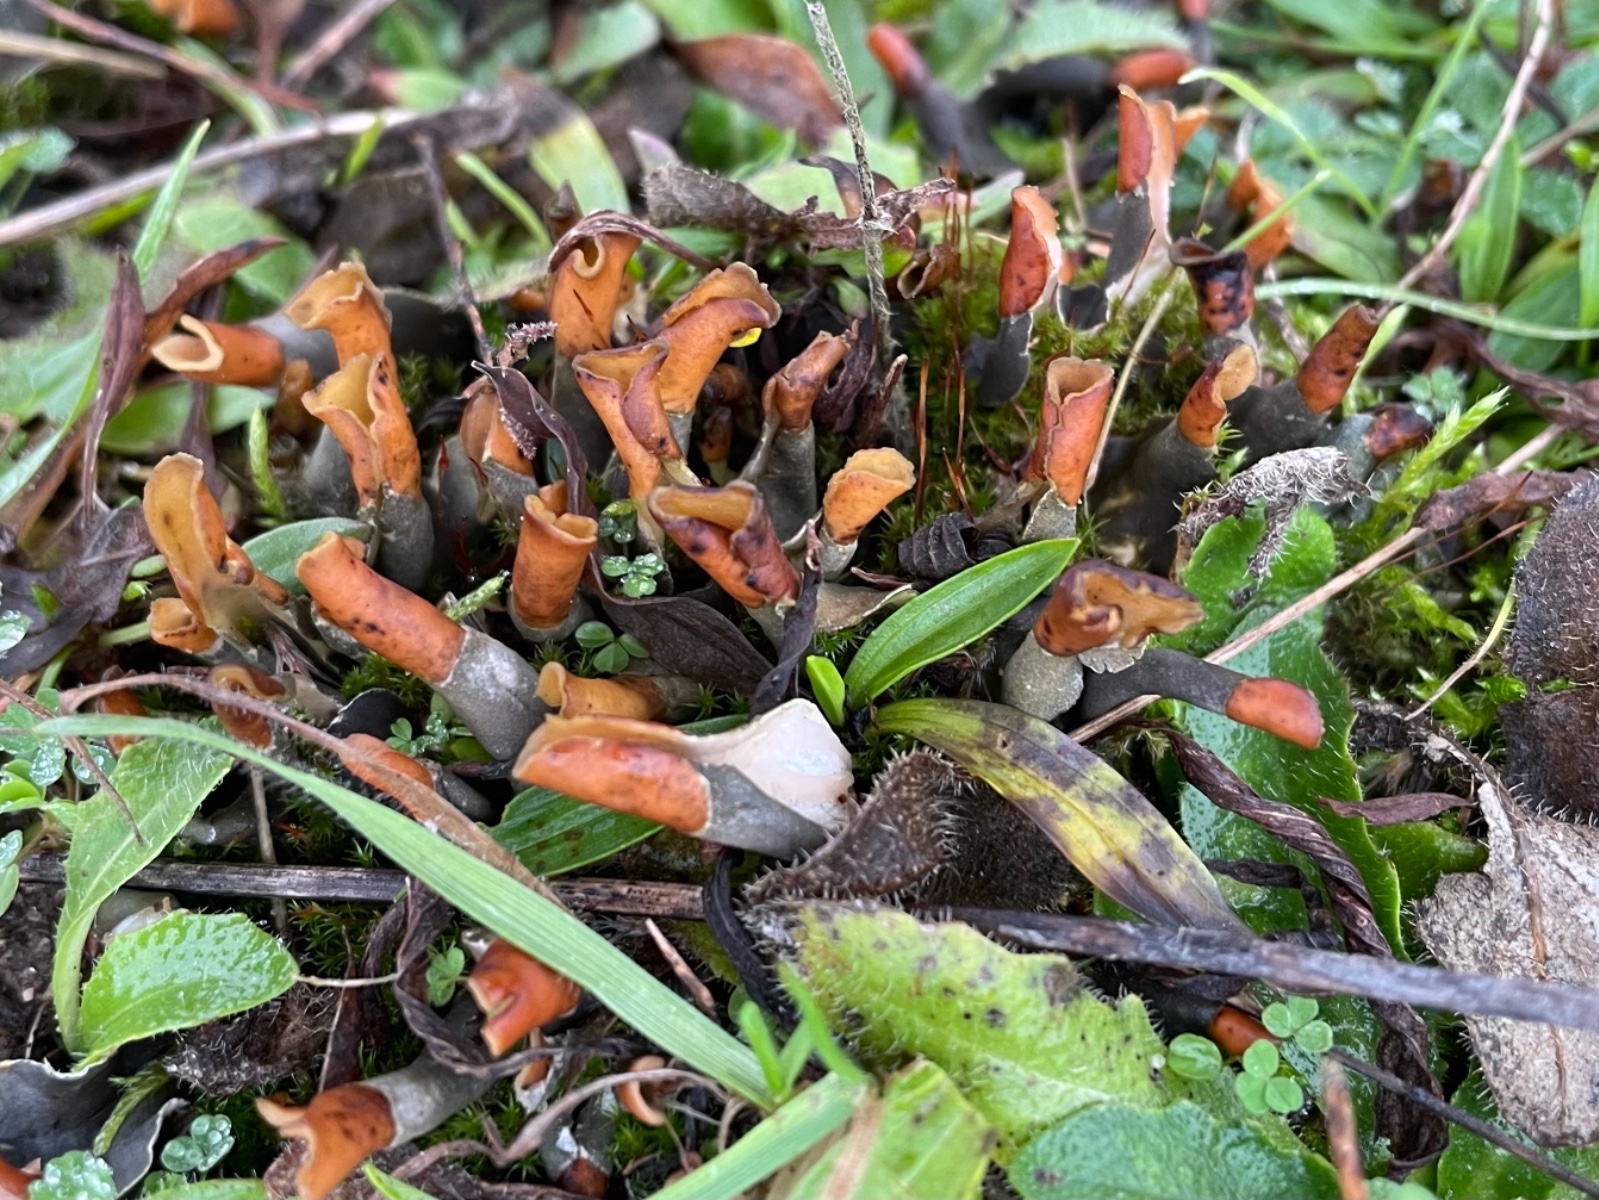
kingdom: Fungi
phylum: Ascomycota
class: Lecanoromycetes
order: Peltigerales
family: Peltigeraceae
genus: Peltigera
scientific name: Peltigera didactyla
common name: liden skjoldlav
